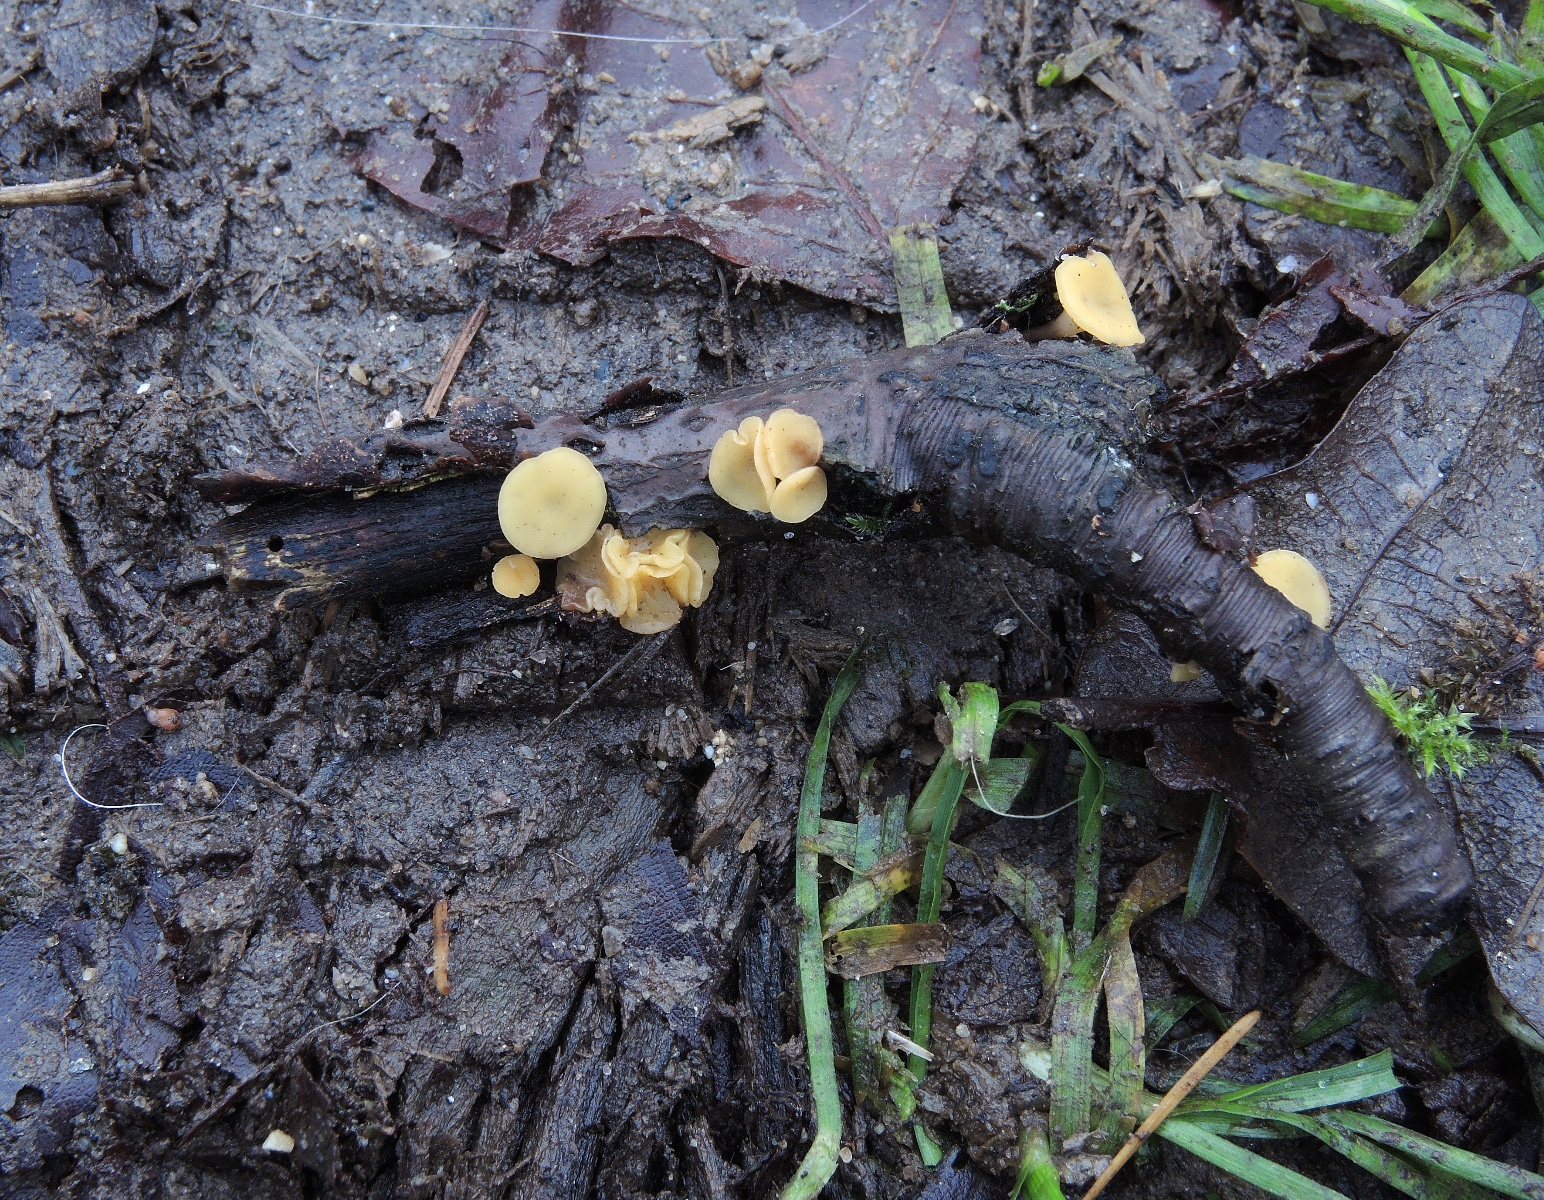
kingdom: Fungi
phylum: Ascomycota
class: Leotiomycetes
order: Helotiales
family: Helotiaceae
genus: Hymenoscyphus
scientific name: Hymenoscyphus serotinus
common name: krumsporet stilkskive
